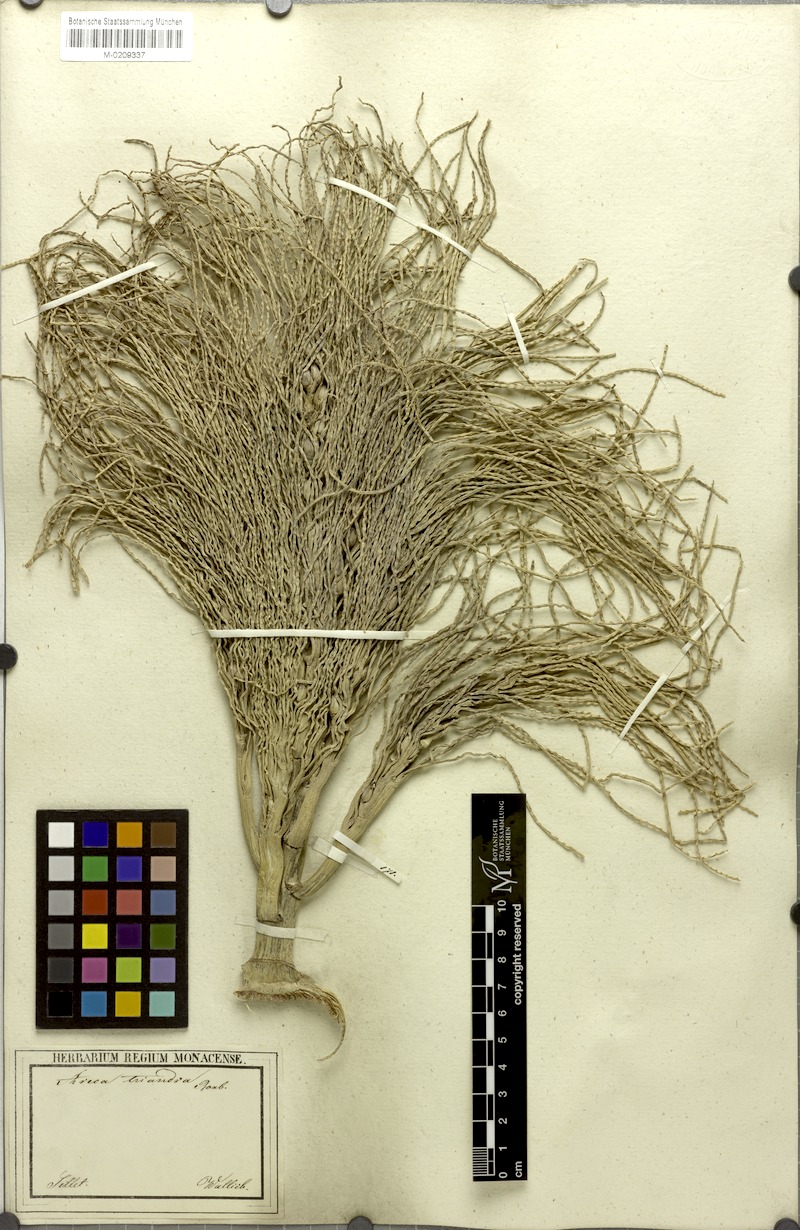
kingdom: Plantae
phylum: Tracheophyta
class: Liliopsida
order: Arecales
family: Arecaceae
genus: Areca
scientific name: Areca triandra
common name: Australian areca palm
